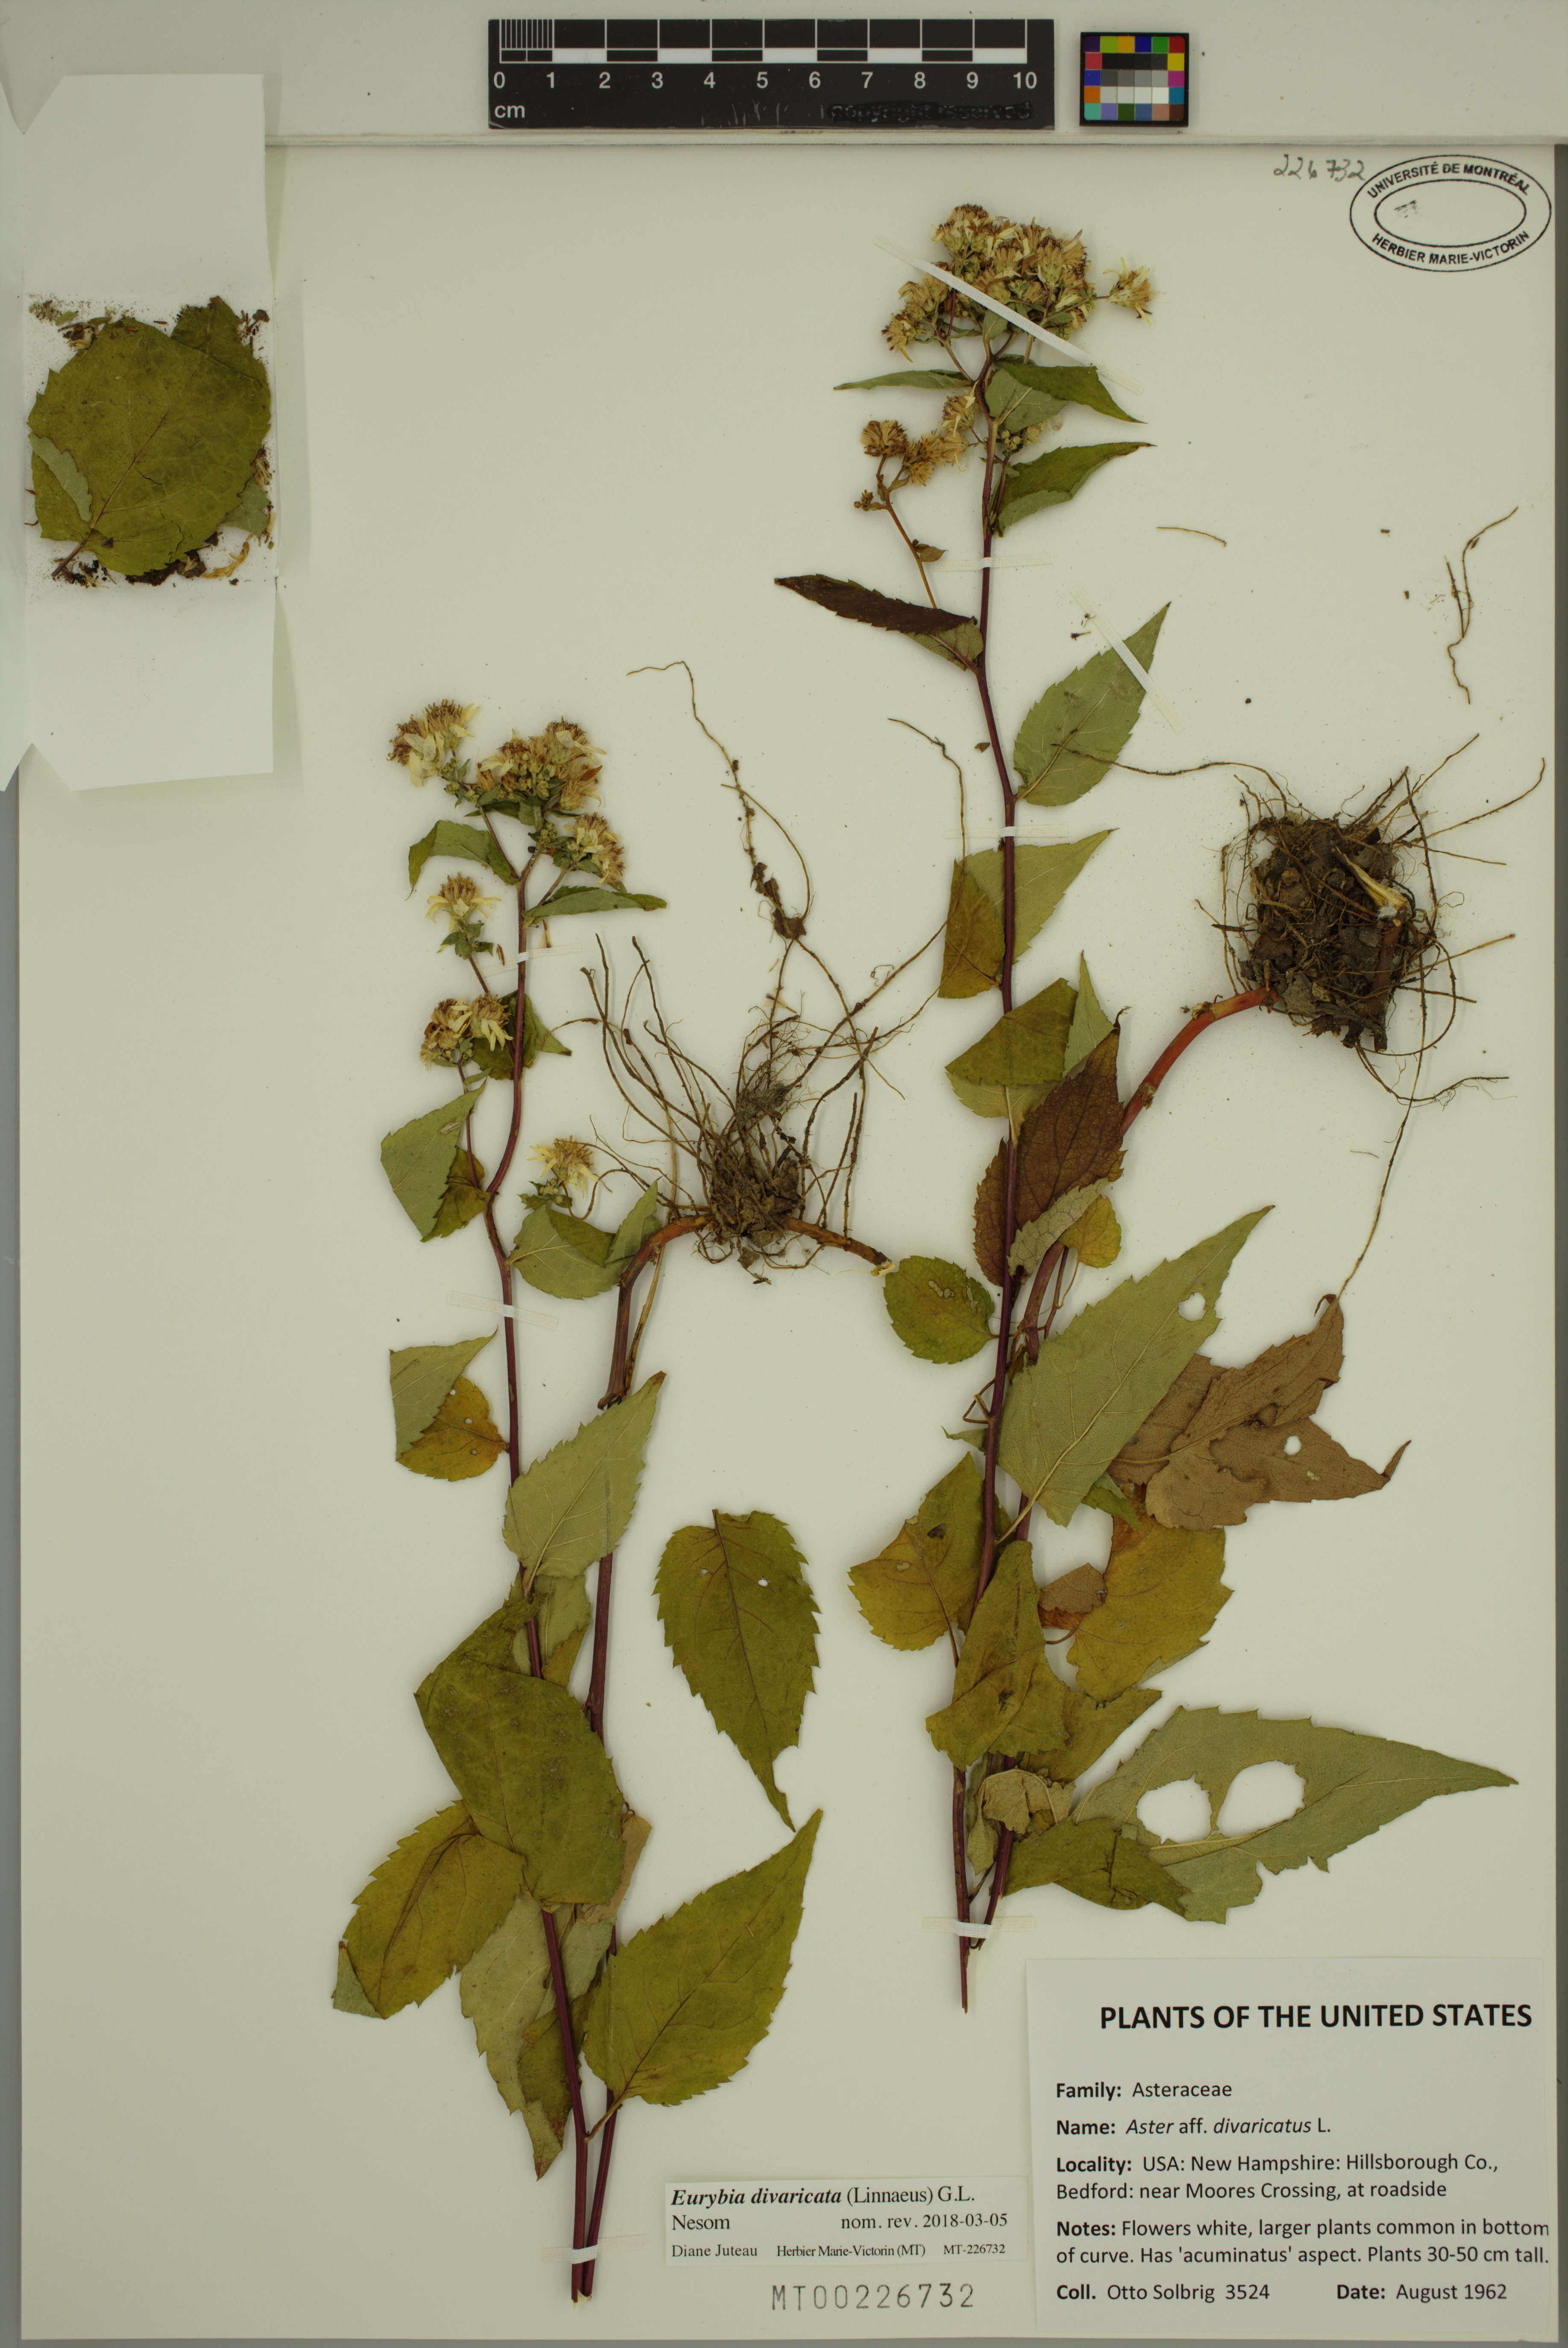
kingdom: Plantae
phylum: Tracheophyta
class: Magnoliopsida
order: Asterales
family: Asteraceae
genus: Eurybia
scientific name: Eurybia divaricata
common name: White wood aster
